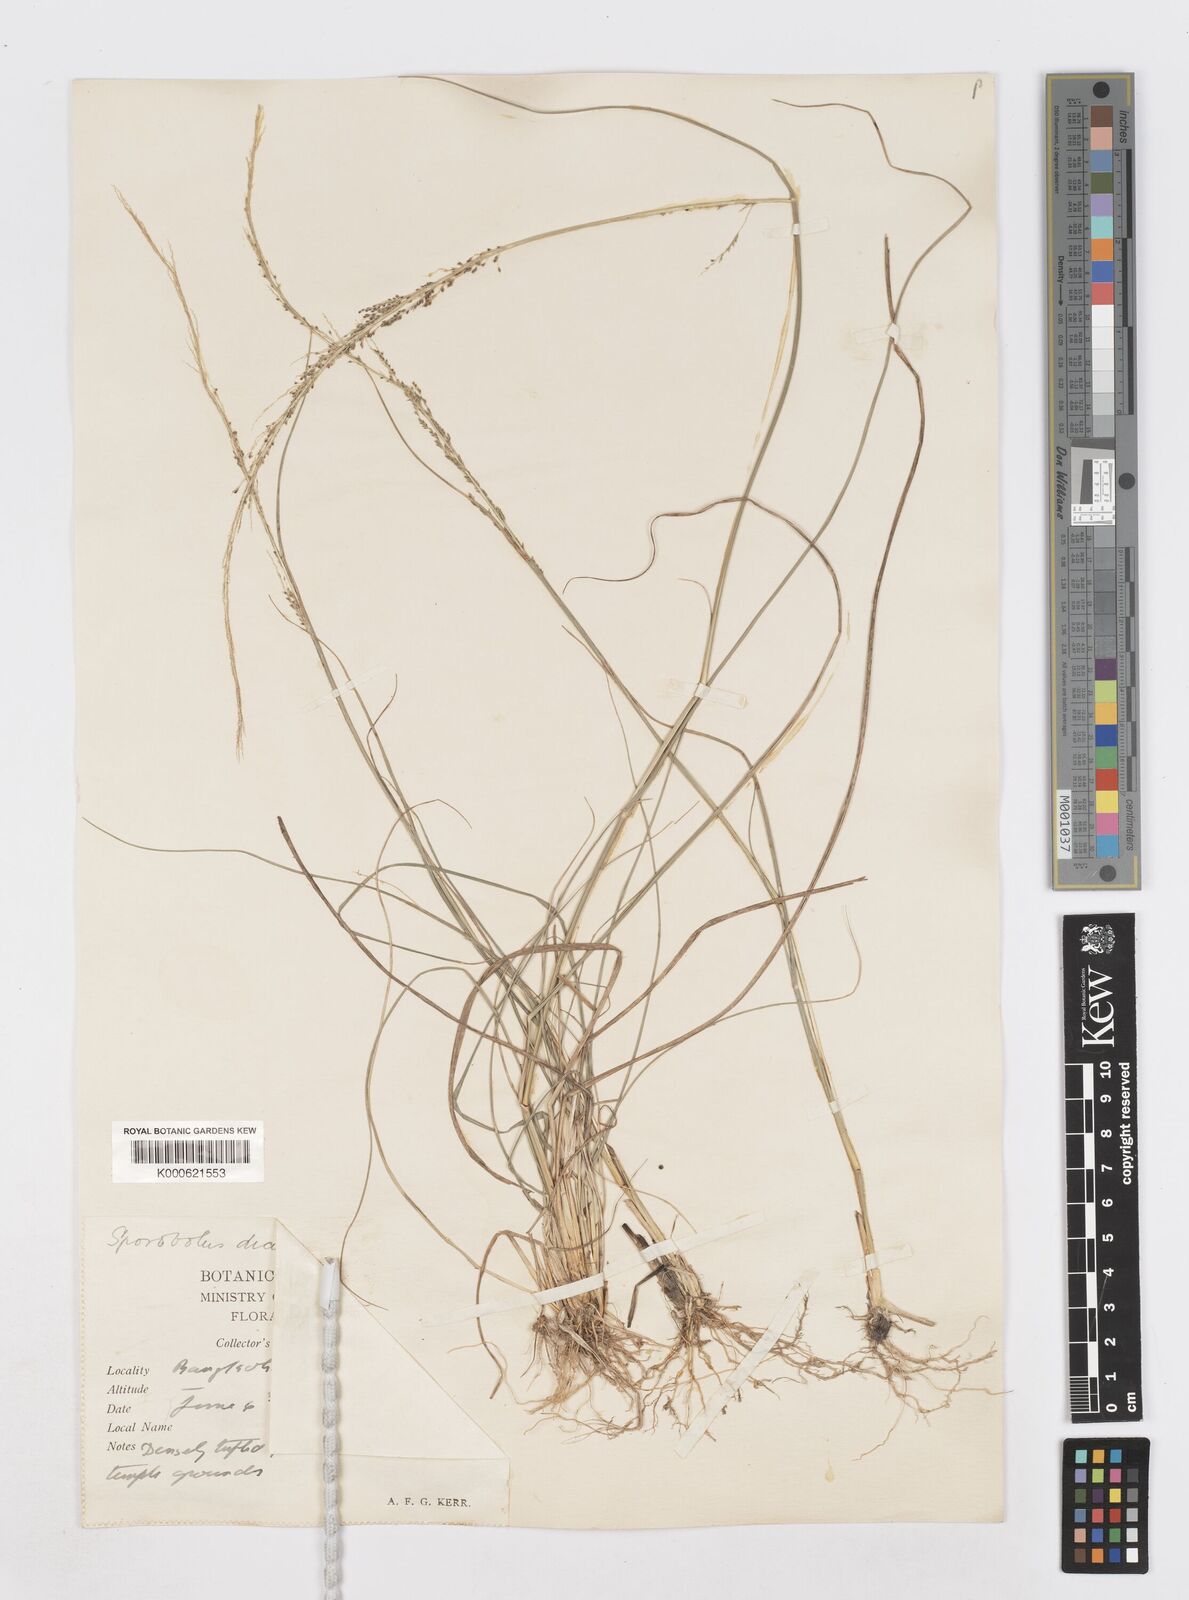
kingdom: Plantae
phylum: Tracheophyta
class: Liliopsida
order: Poales
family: Poaceae
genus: Sporobolus
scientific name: Sporobolus diandrus
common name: Tussock dropseed
